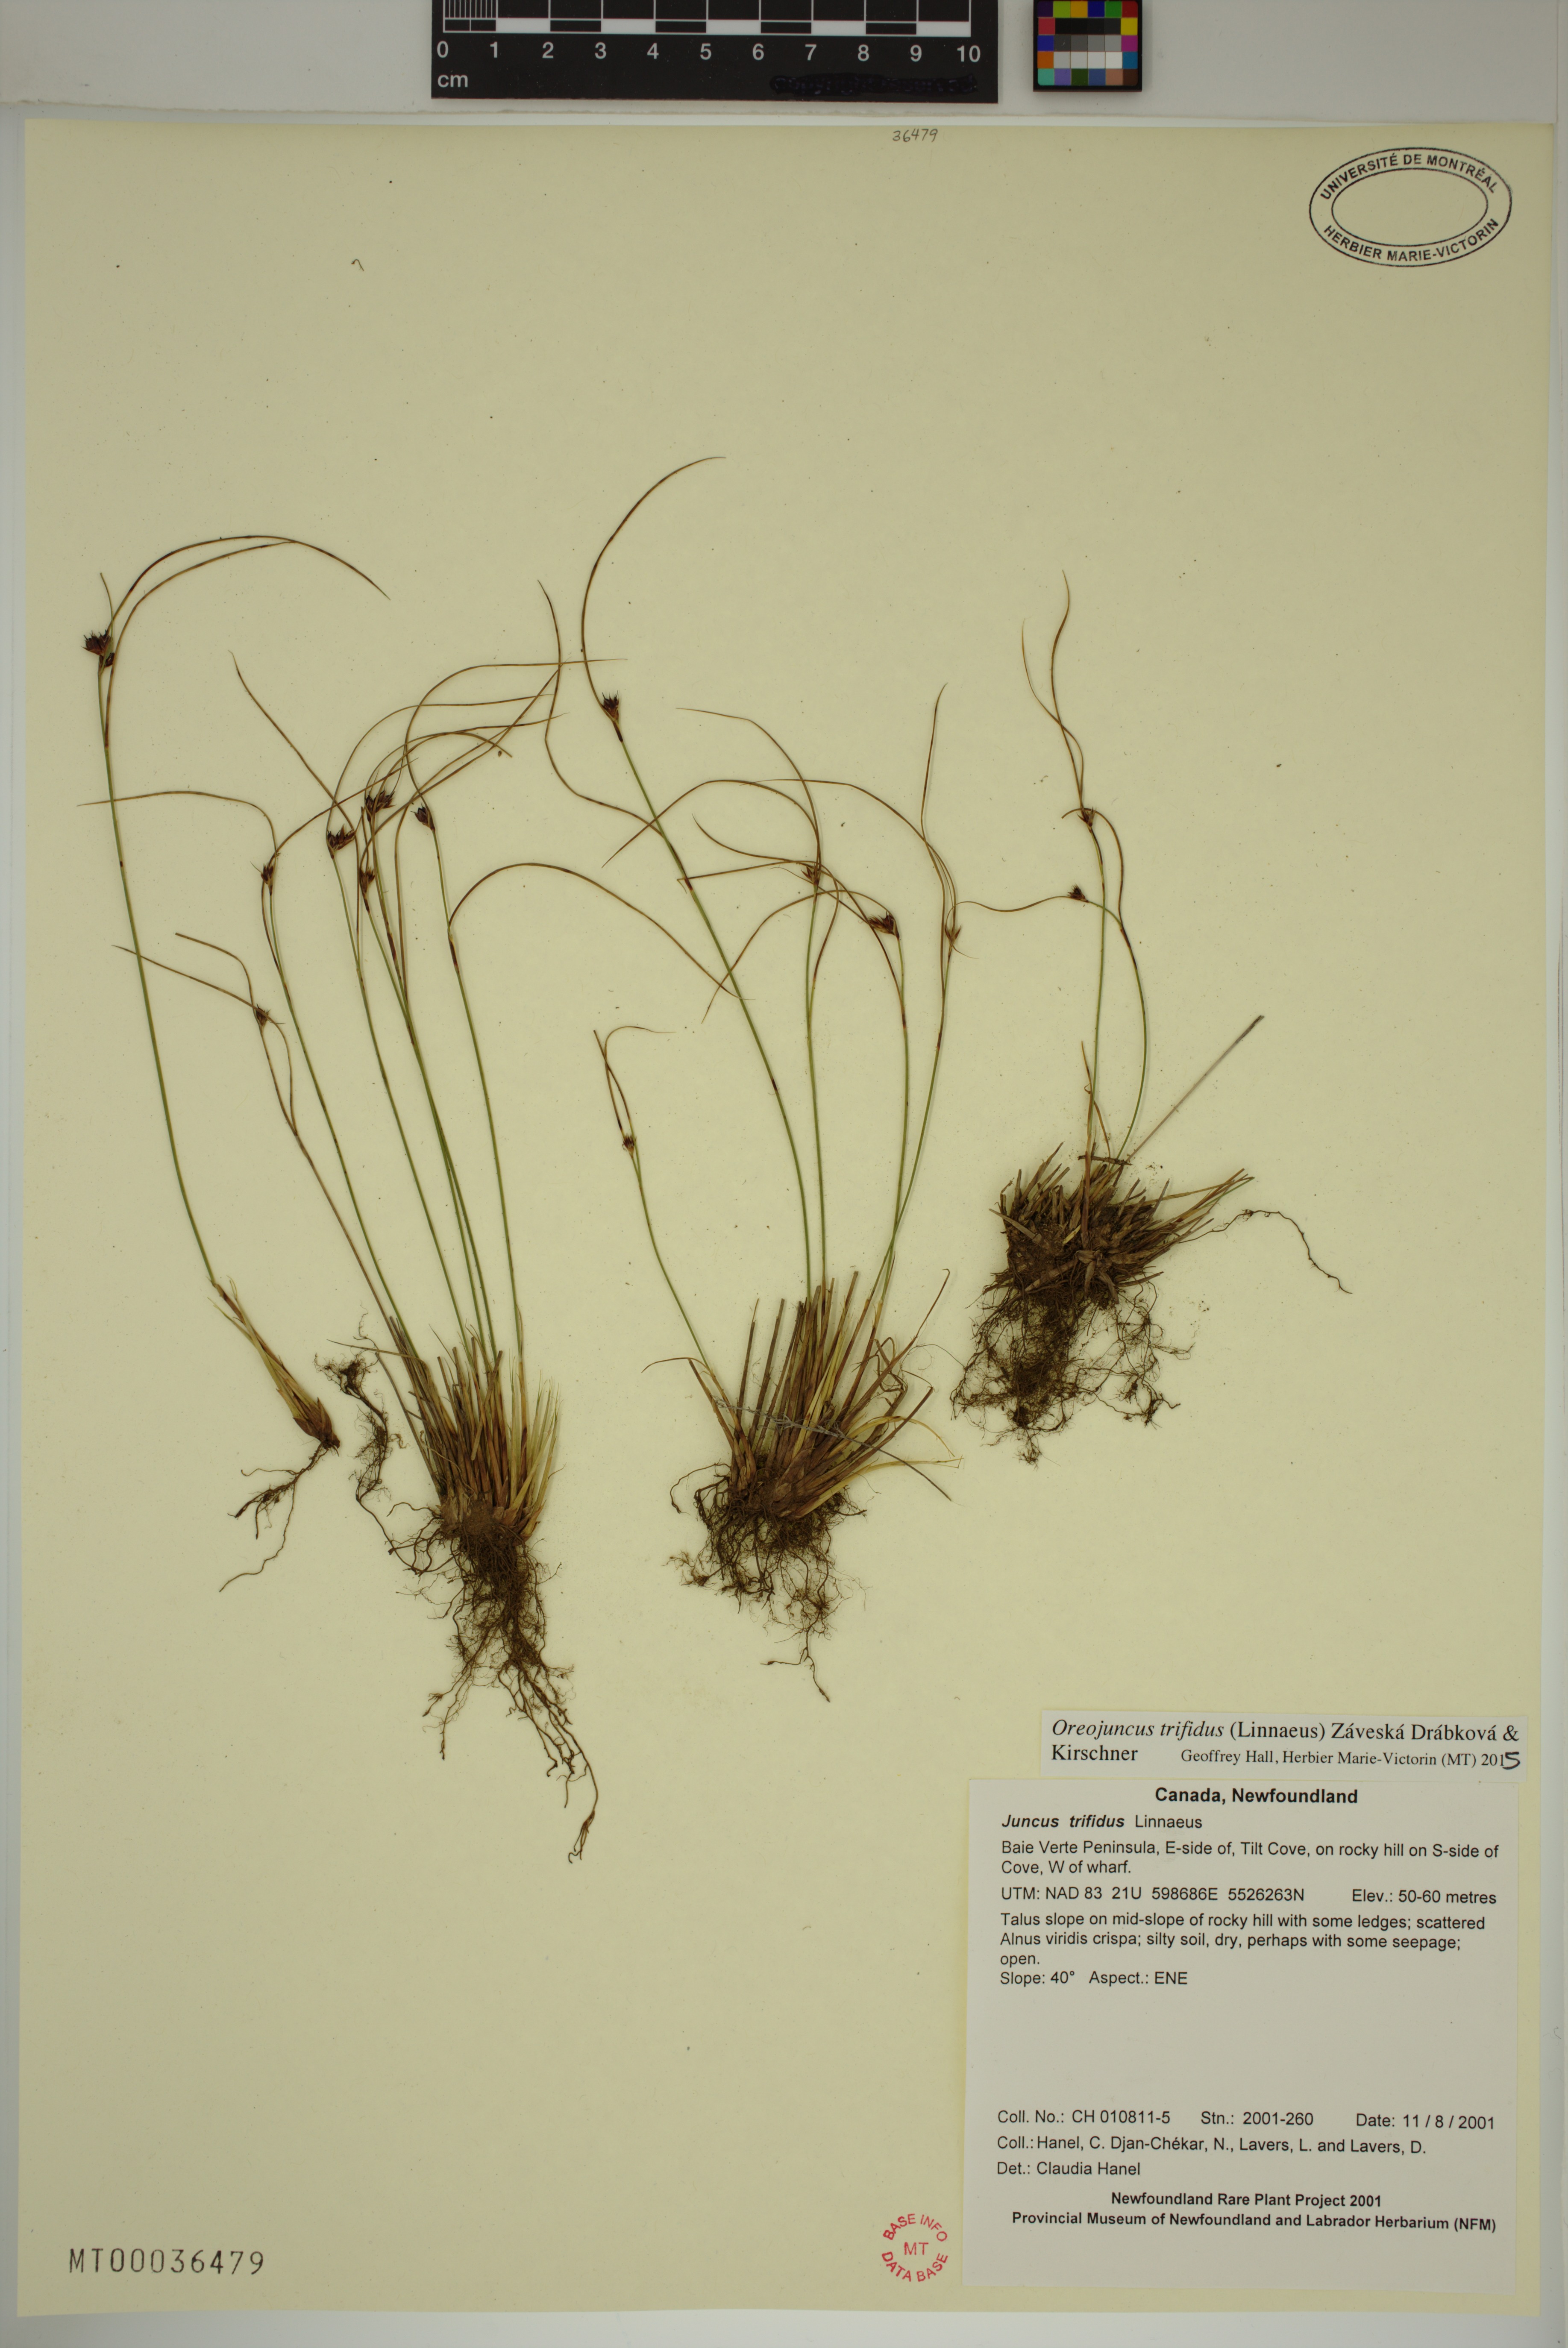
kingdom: Plantae
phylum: Tracheophyta
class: Liliopsida
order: Poales
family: Juncaceae
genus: Oreojuncus
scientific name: Oreojuncus trifidus
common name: Highland rush
